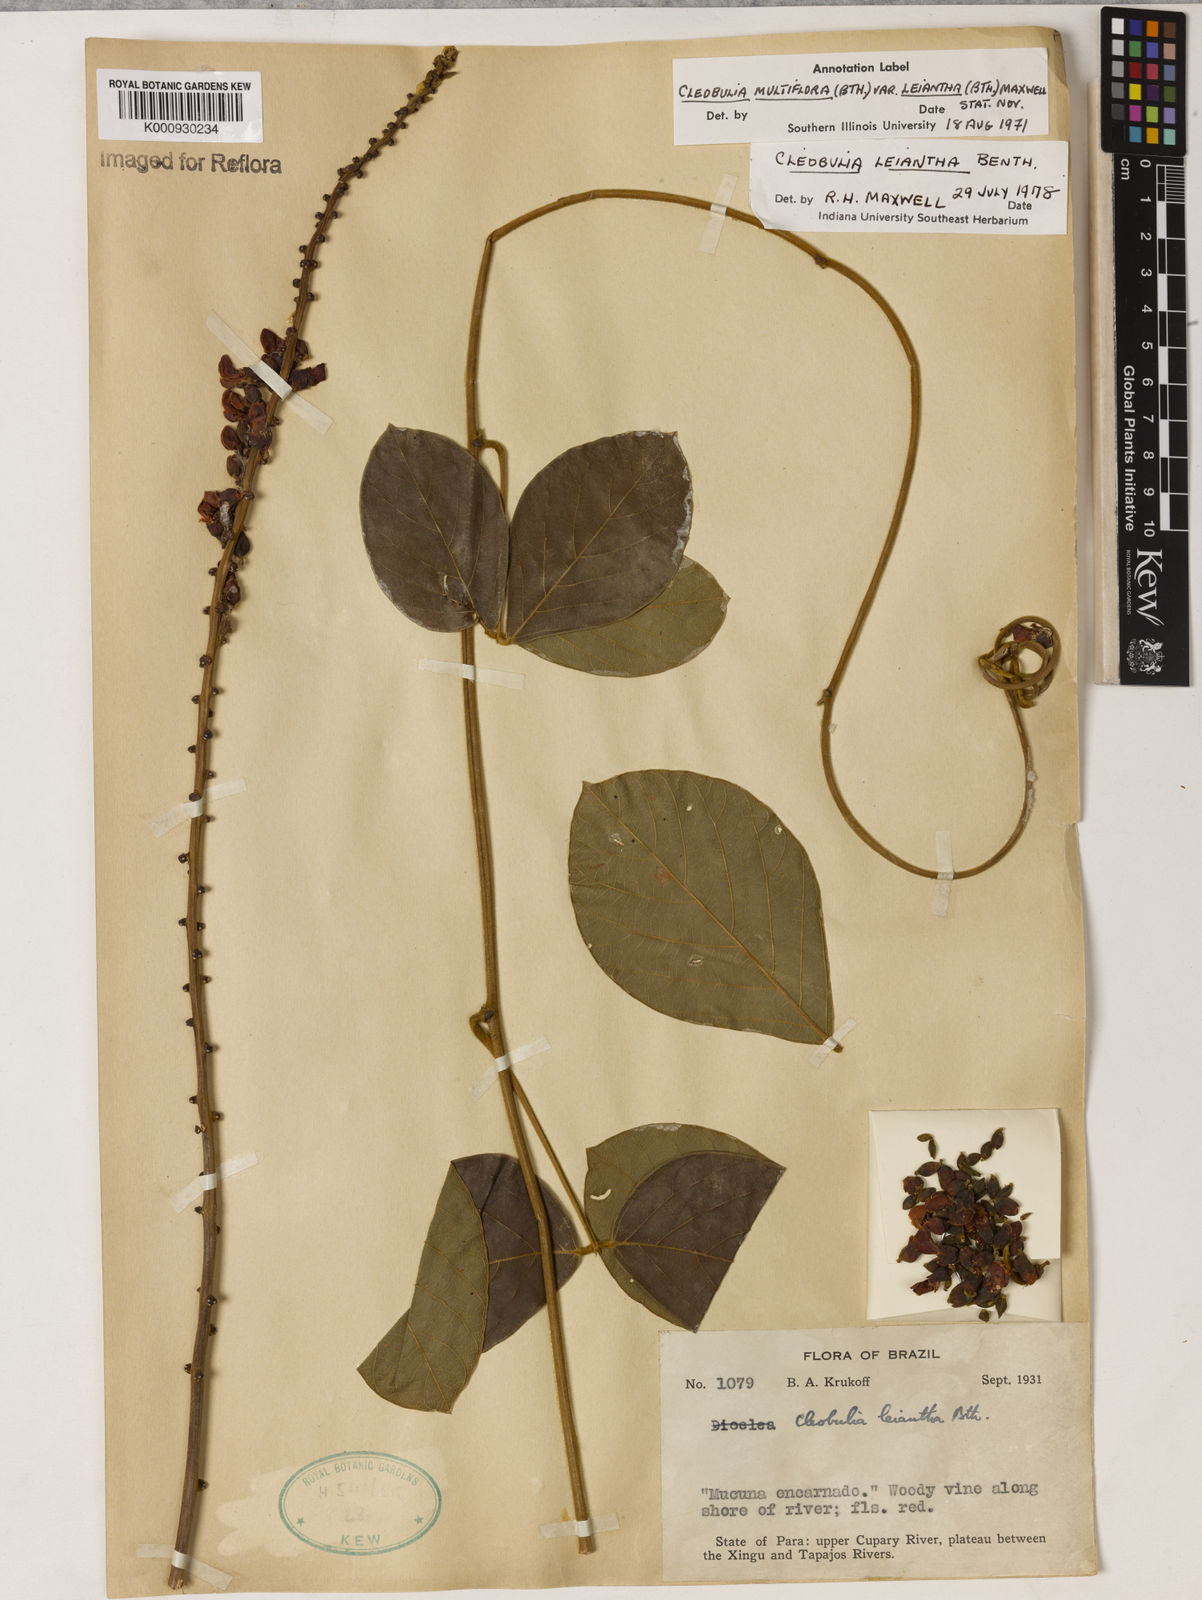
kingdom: Plantae
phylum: Tracheophyta
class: Magnoliopsida
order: Fabales
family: Fabaceae
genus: Cleobulia
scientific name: Cleobulia leiantha
